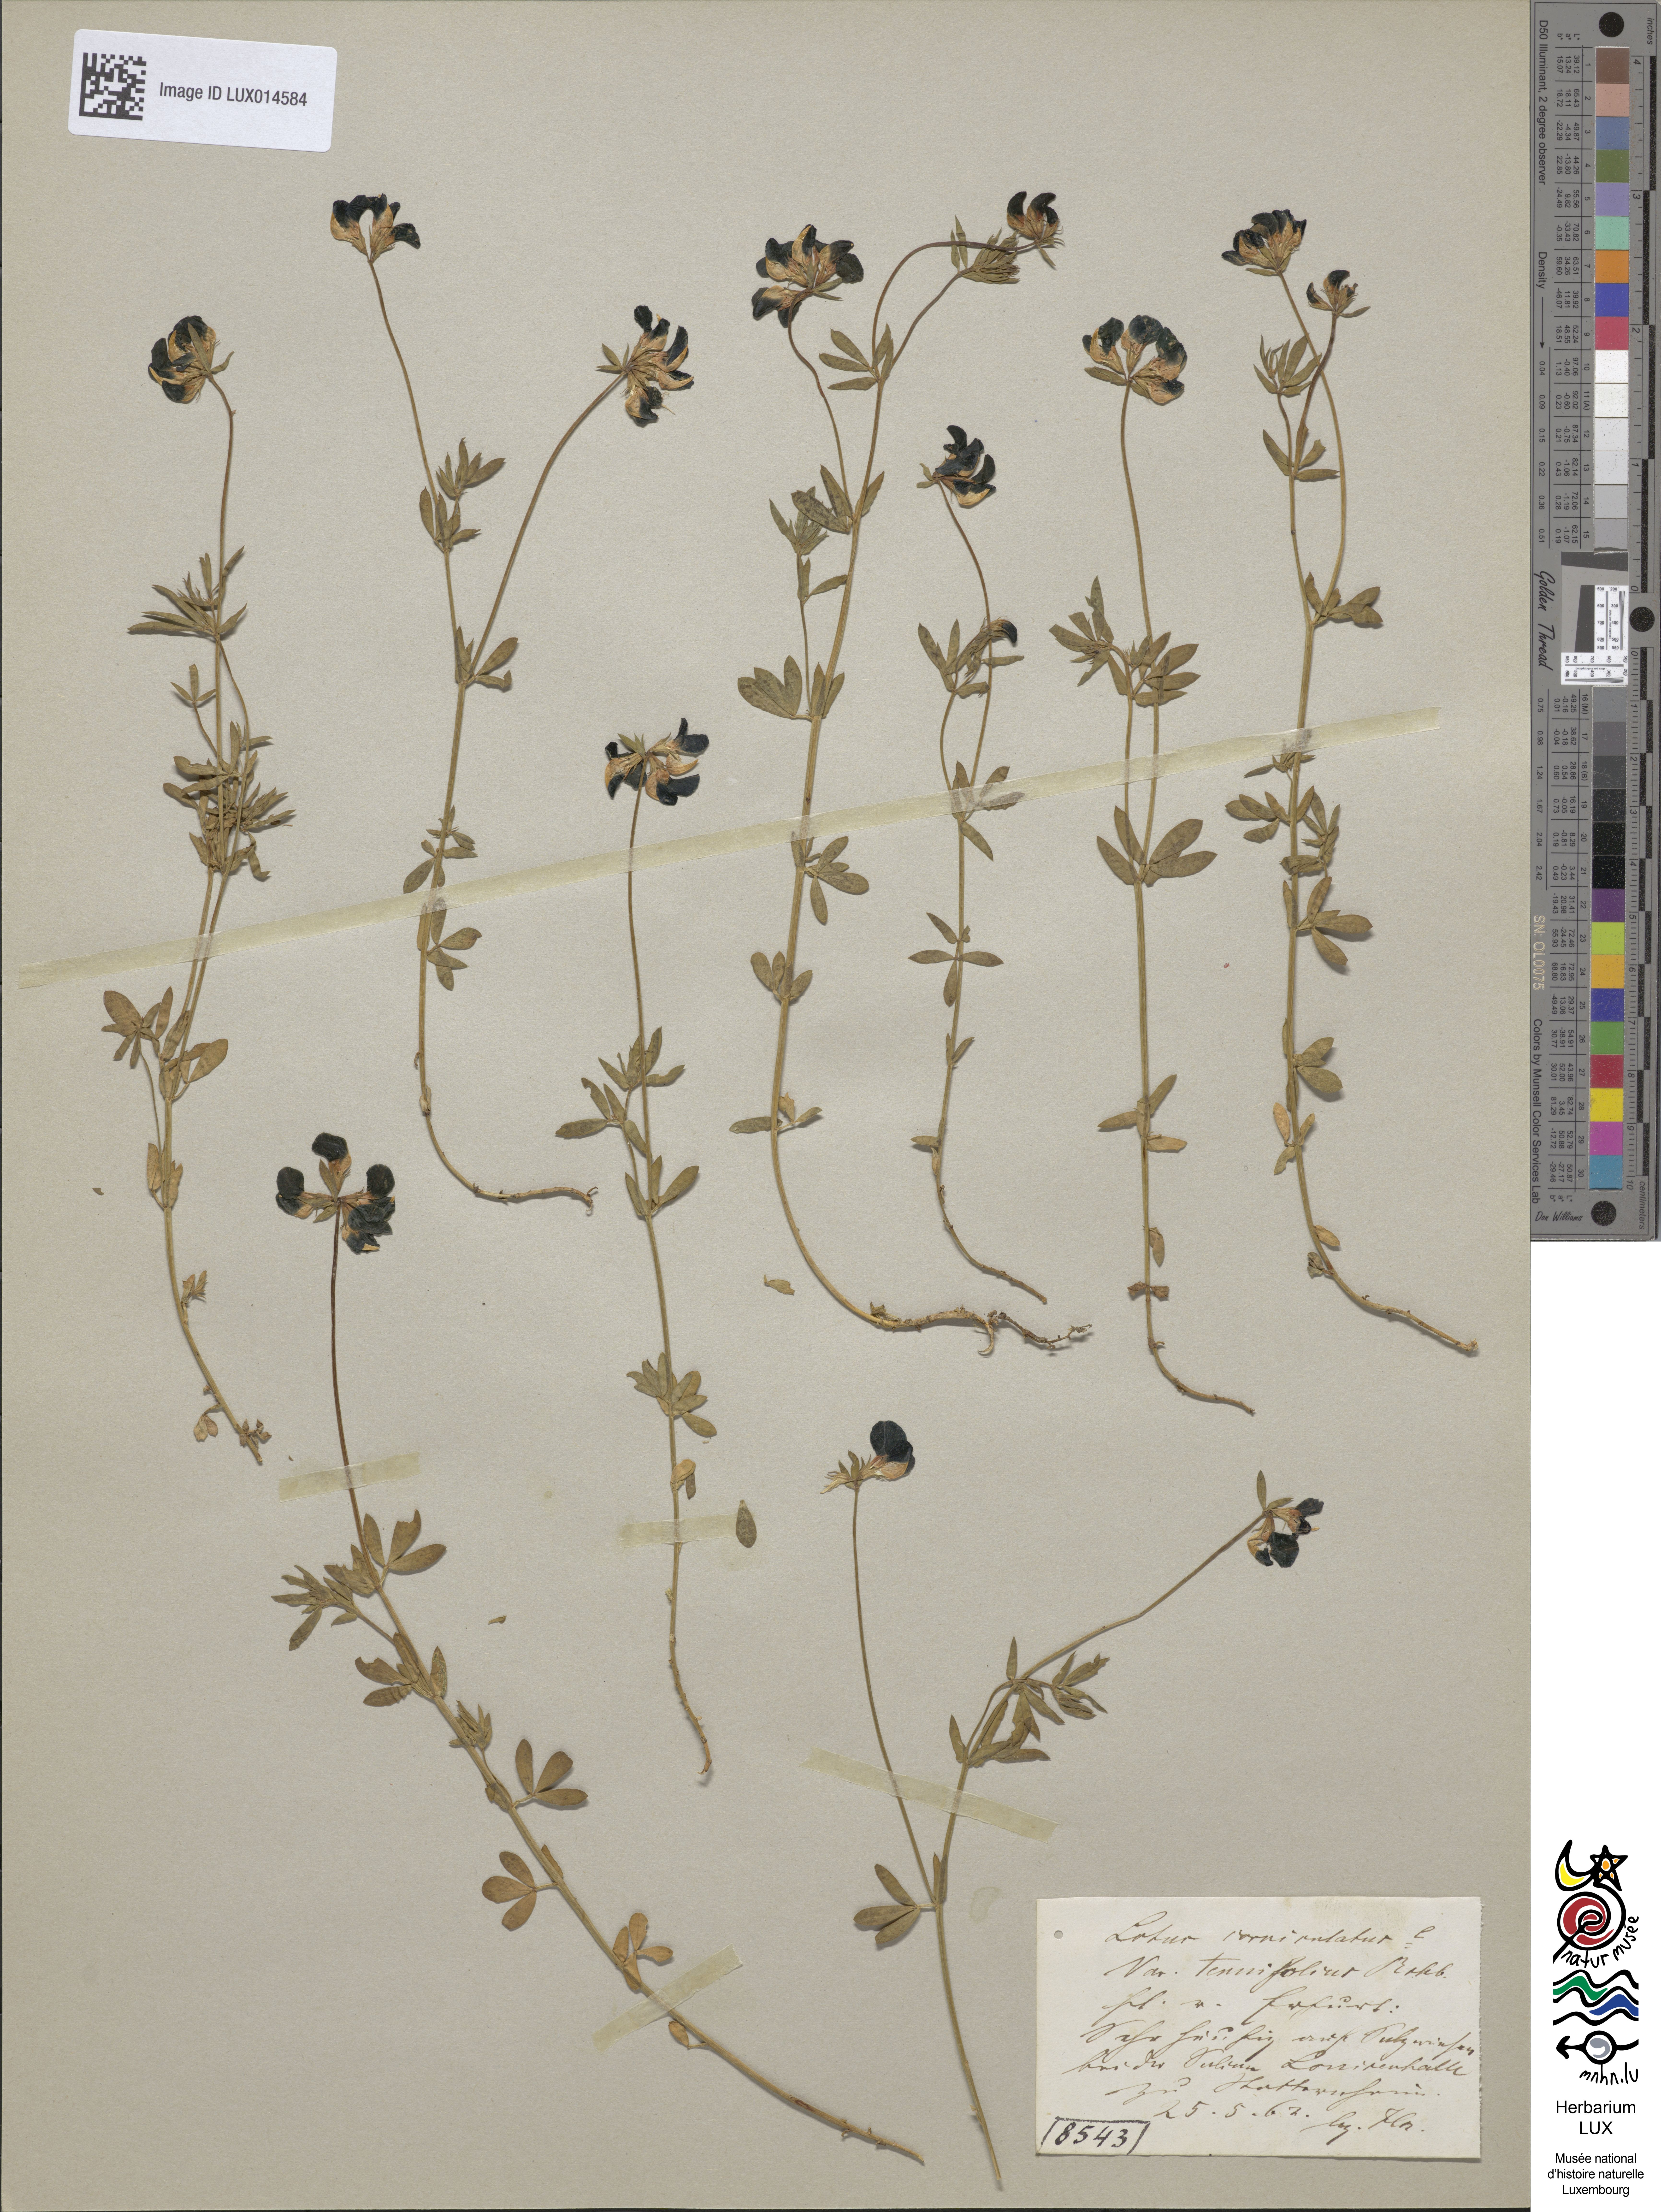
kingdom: Plantae
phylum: Tracheophyta
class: Magnoliopsida
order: Fabales
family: Fabaceae
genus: Lotus
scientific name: Lotus tenuis
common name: Narrow-leaved bird's-foot-trefoil
